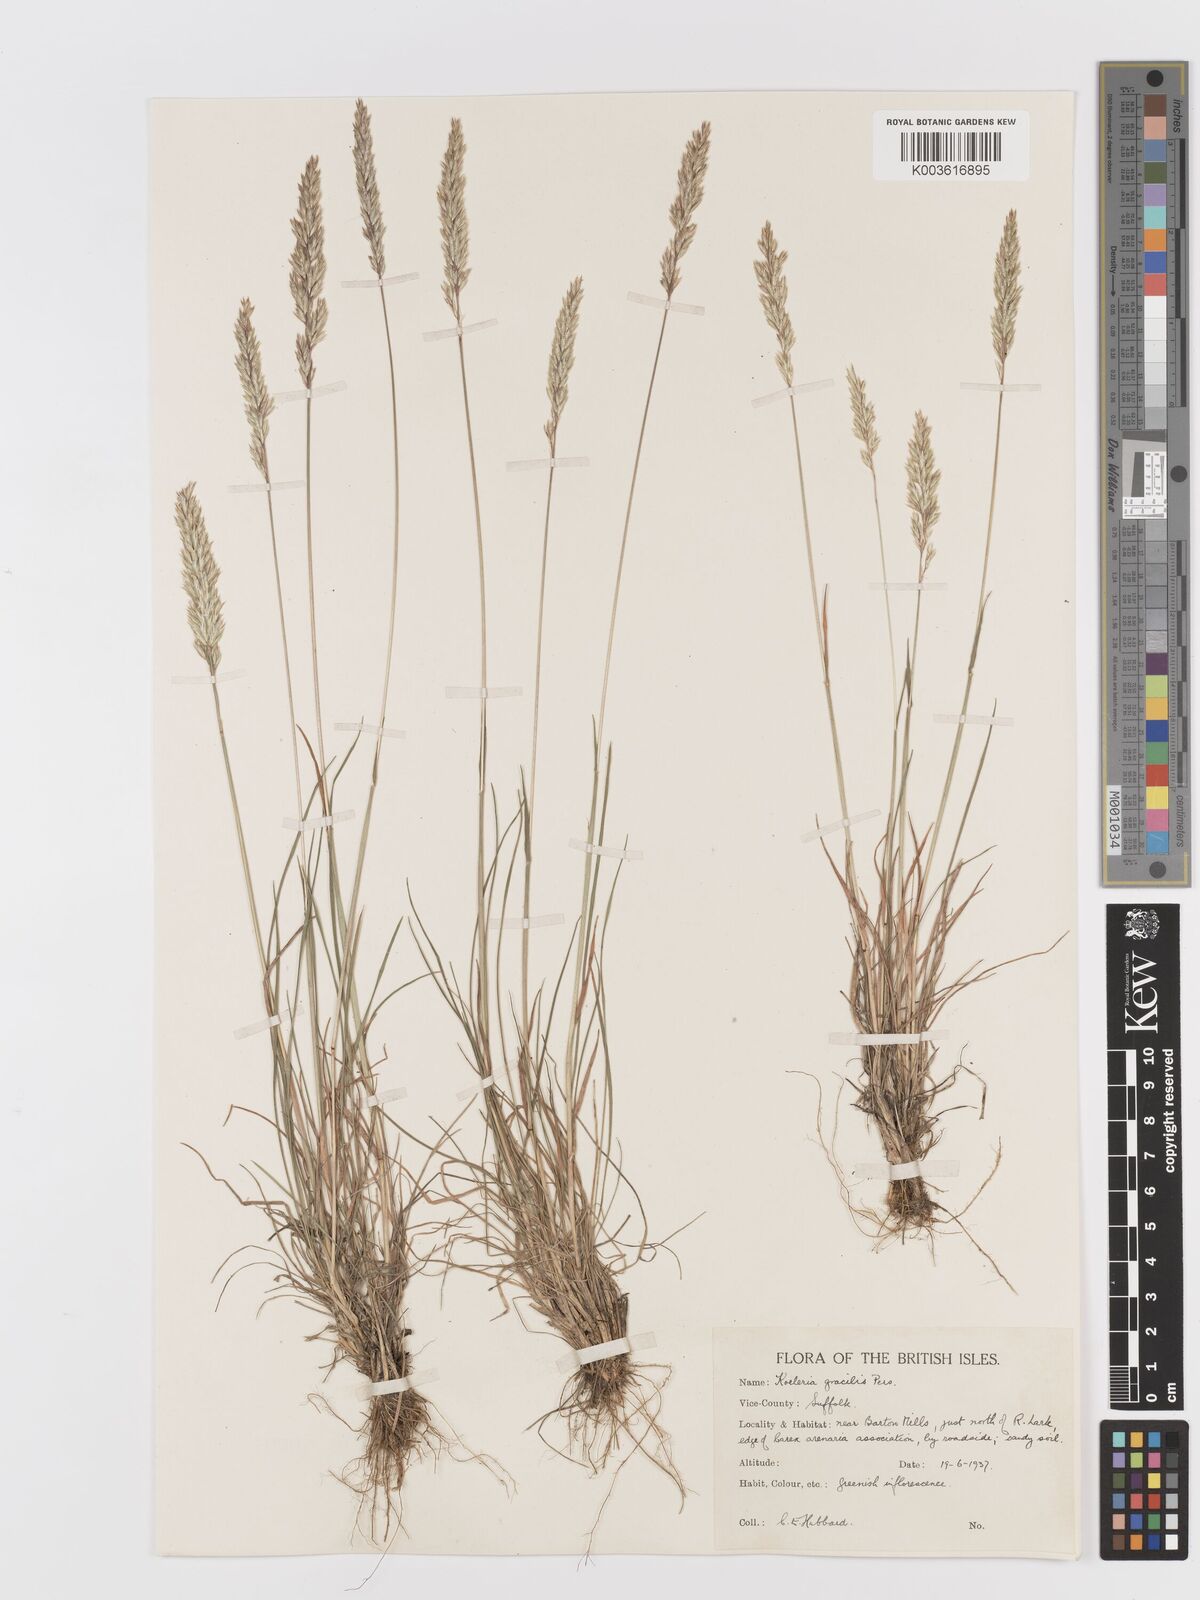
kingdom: Plantae
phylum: Tracheophyta
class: Liliopsida
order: Poales
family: Poaceae
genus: Koeleria
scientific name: Koeleria macrantha
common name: Crested hair-grass
